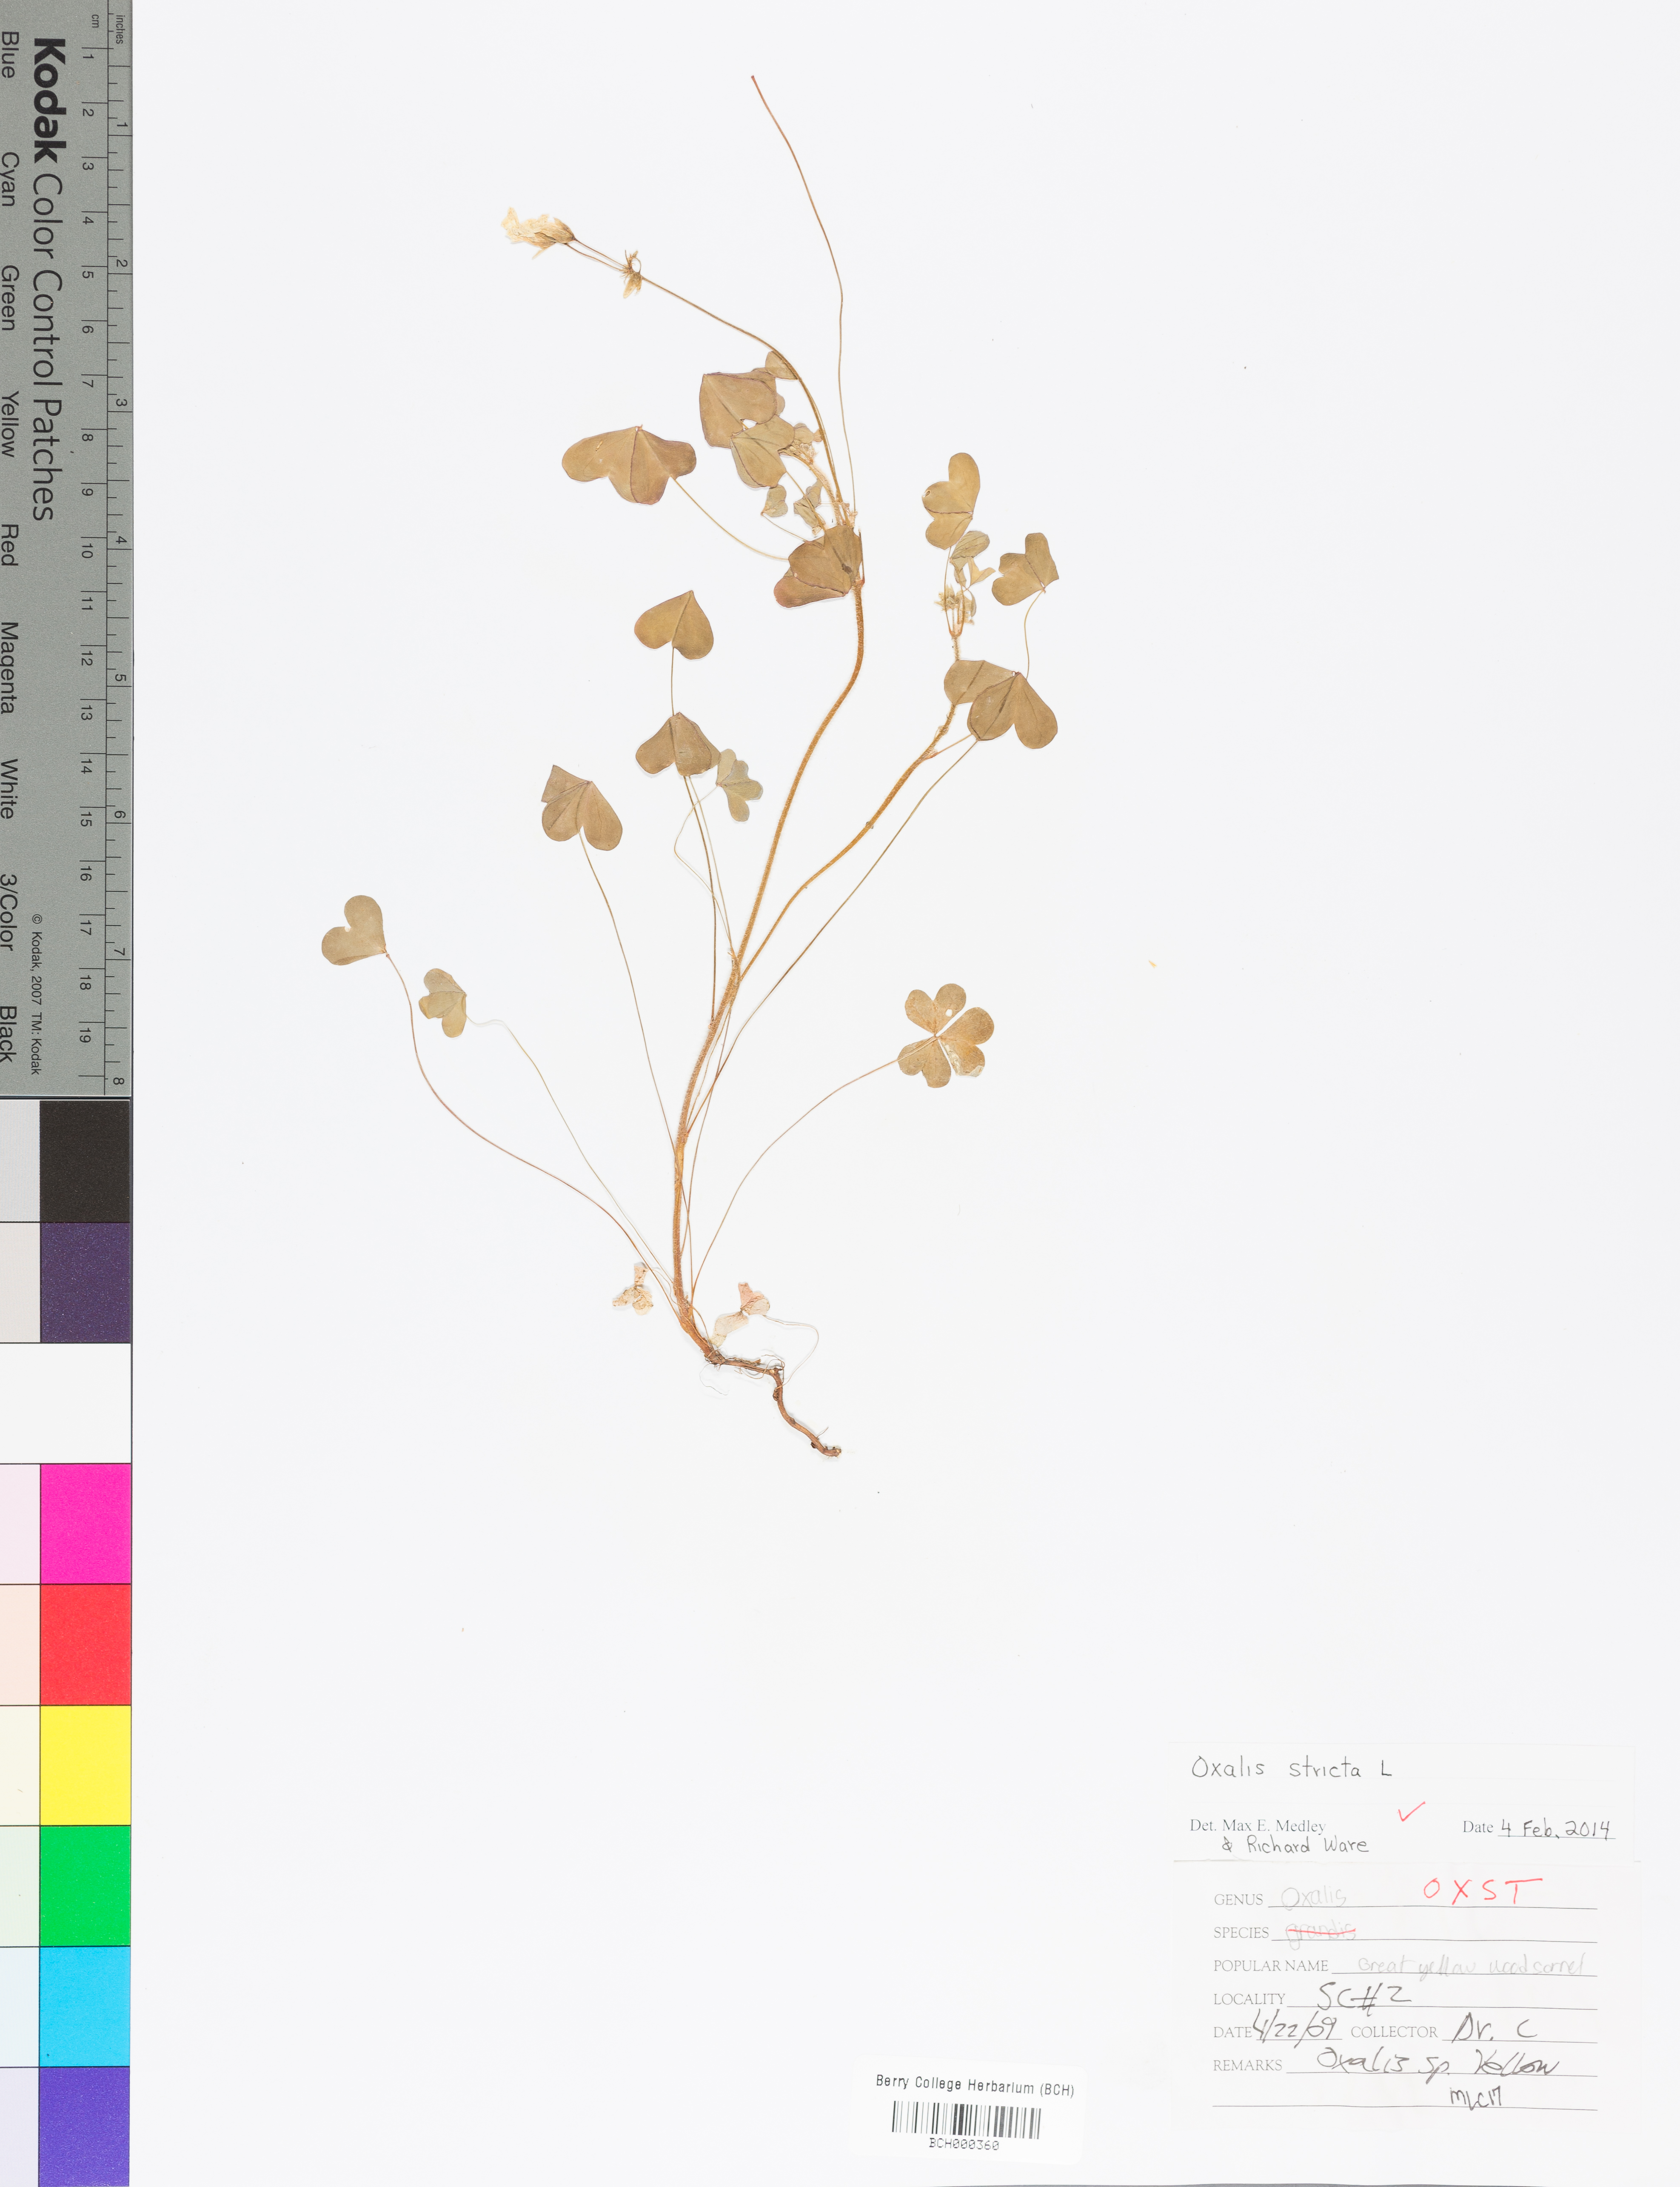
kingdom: Plantae
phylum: Tracheophyta
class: Magnoliopsida
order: Oxalidales
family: Oxalidaceae
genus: Oxalis
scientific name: Oxalis stricta
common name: Upright yellow-sorrel
